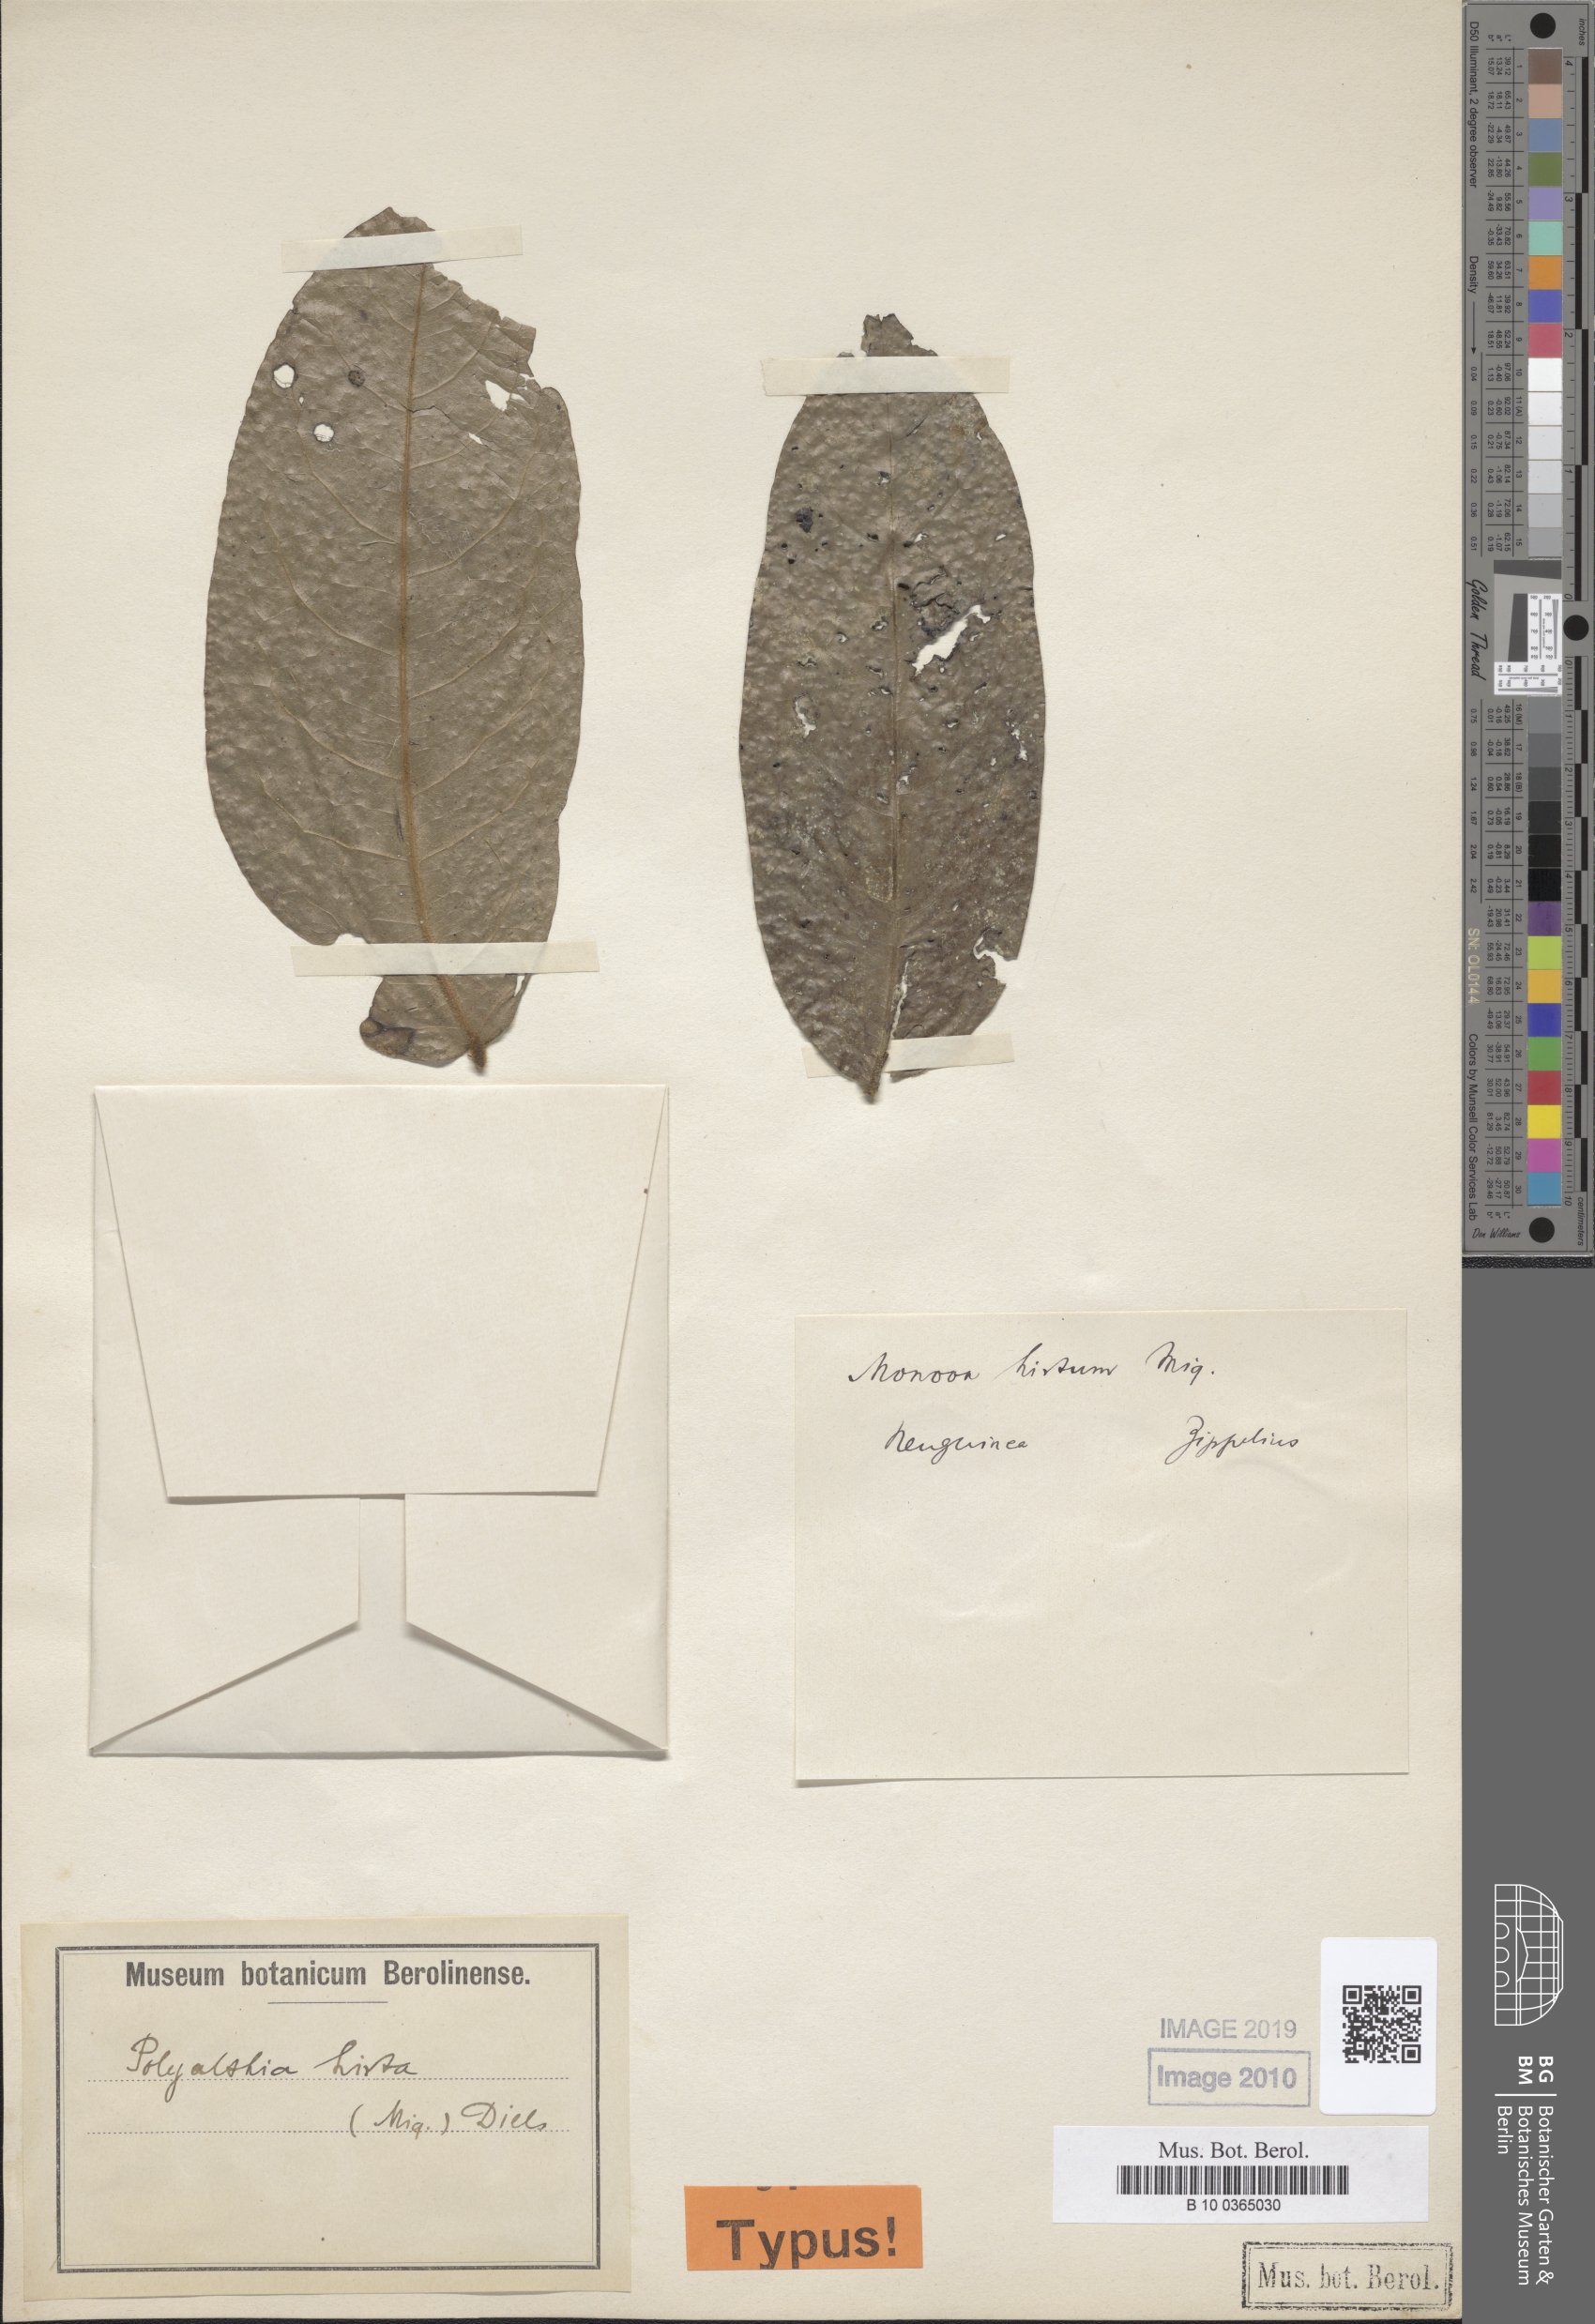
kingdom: Plantae
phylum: Tracheophyta
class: Magnoliopsida
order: Magnoliales
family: Annonaceae
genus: Hubera
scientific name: Hubera hirta
